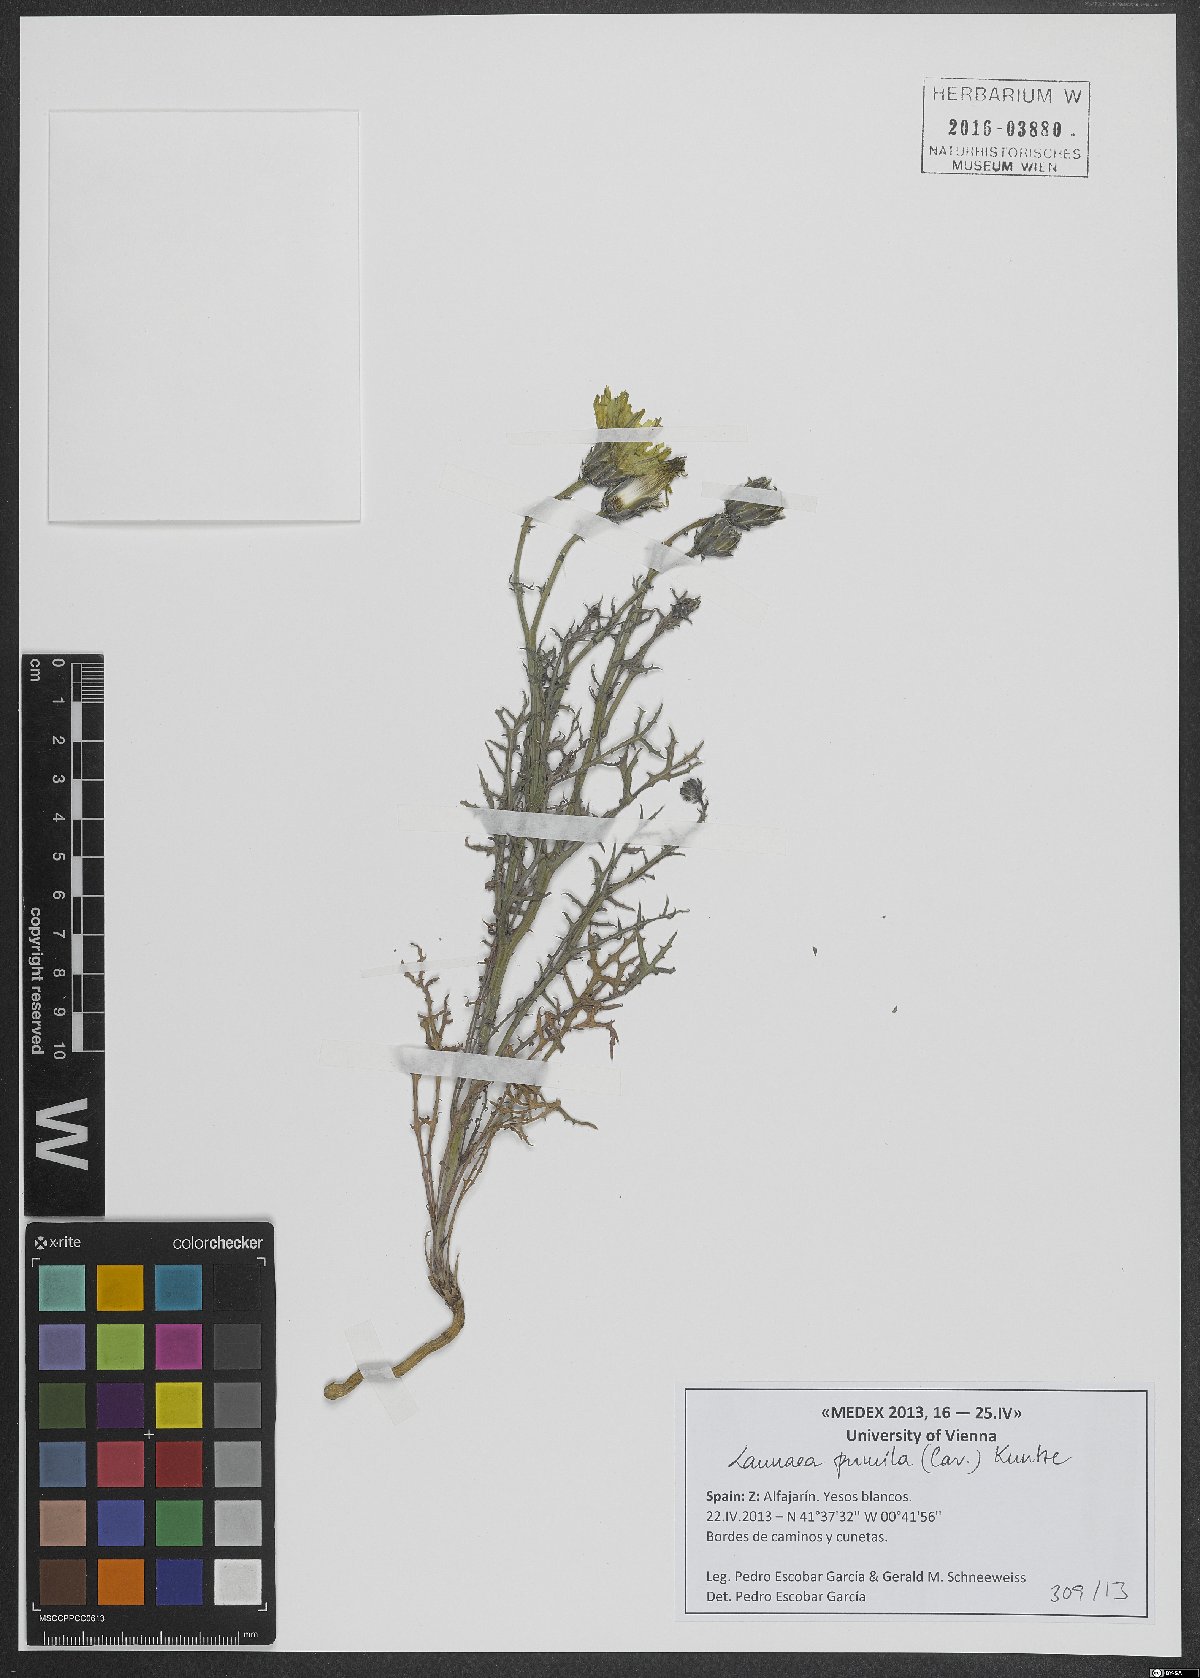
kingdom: Plantae
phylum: Tracheophyta
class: Magnoliopsida
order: Asterales
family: Asteraceae
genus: Launaea
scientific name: Launaea pumila
